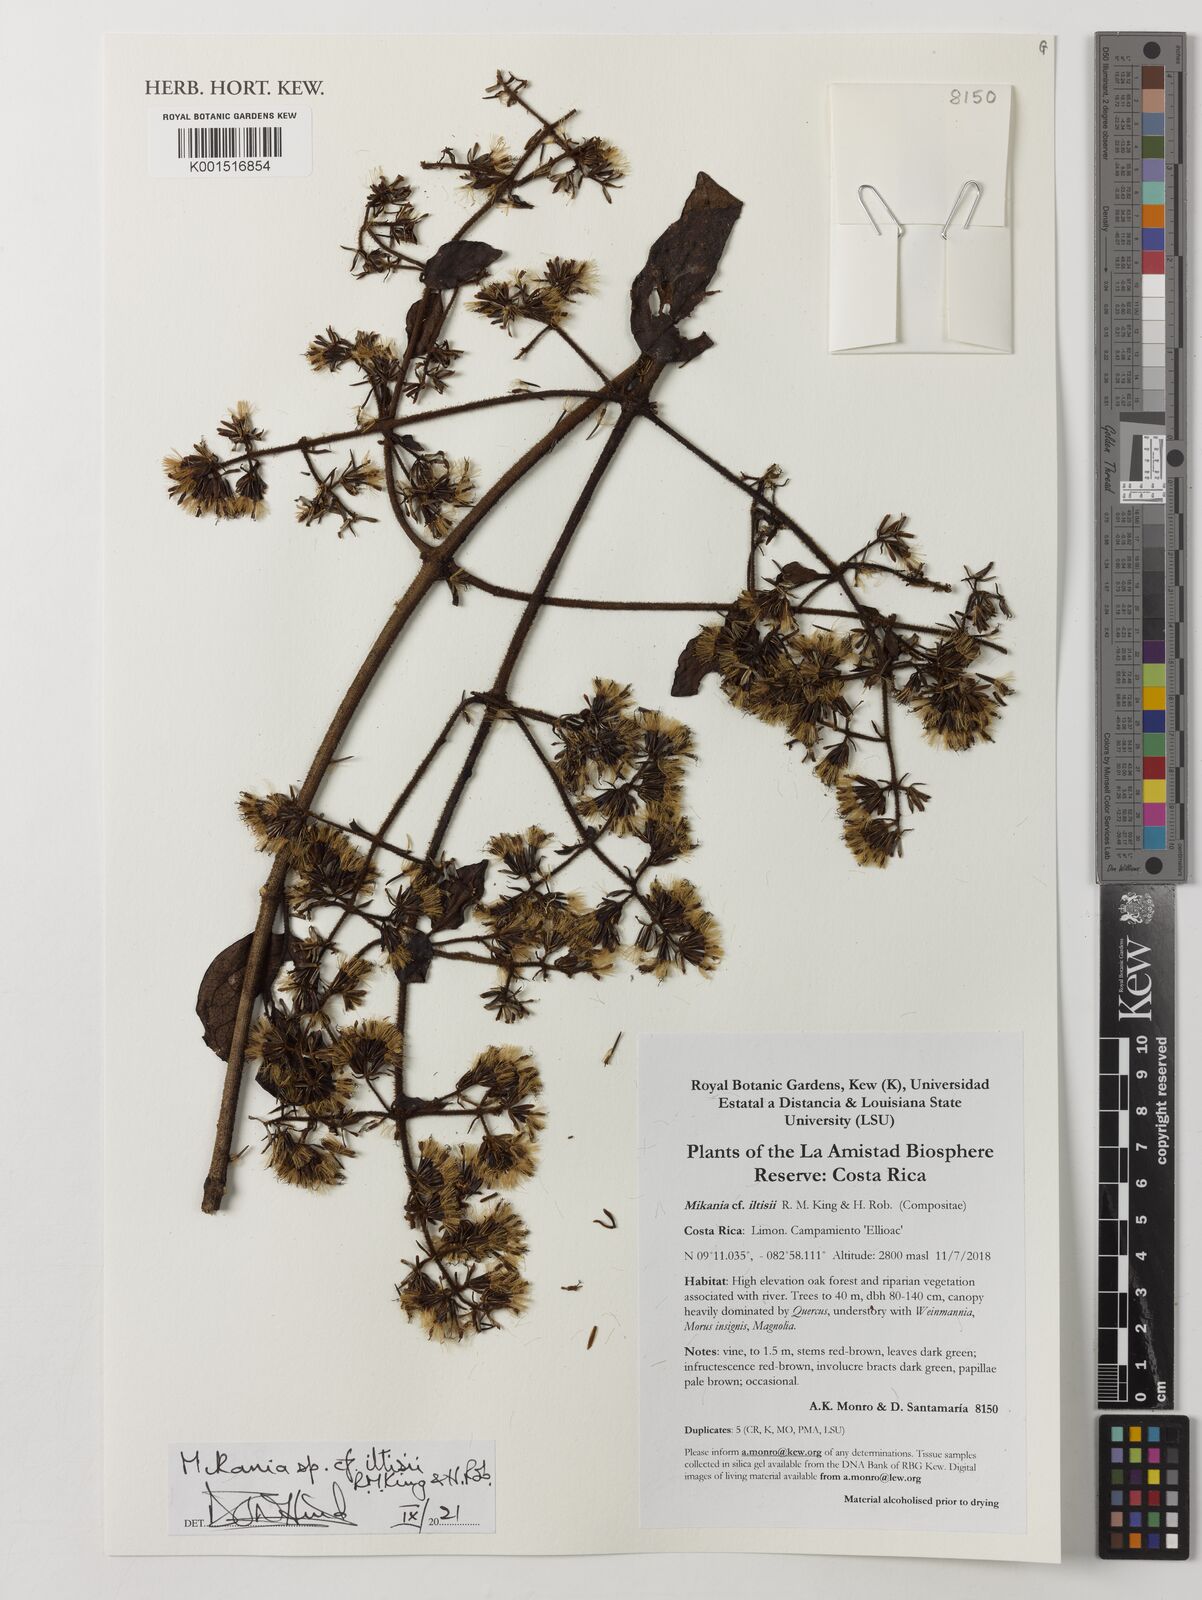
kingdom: Plantae
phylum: Tracheophyta
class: Magnoliopsida
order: Asterales
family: Asteraceae
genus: Mikania
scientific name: Mikania iltisii
